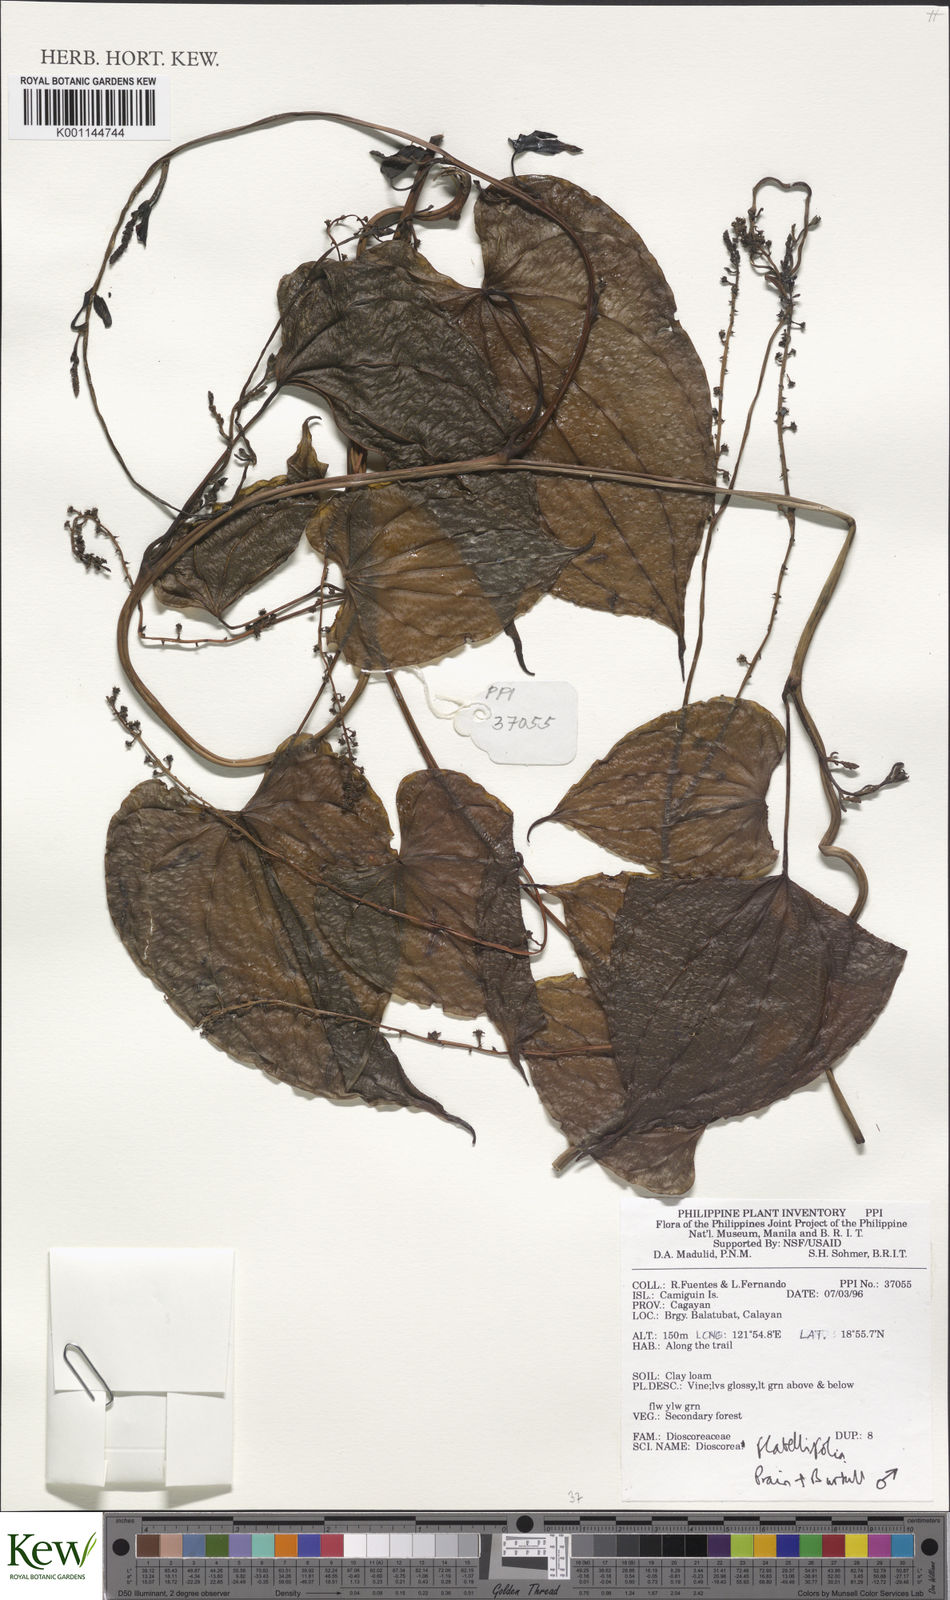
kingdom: Plantae
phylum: Tracheophyta
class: Liliopsida
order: Dioscoreales
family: Dioscoreaceae
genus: Dioscorea
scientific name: Dioscorea flabellifolia
